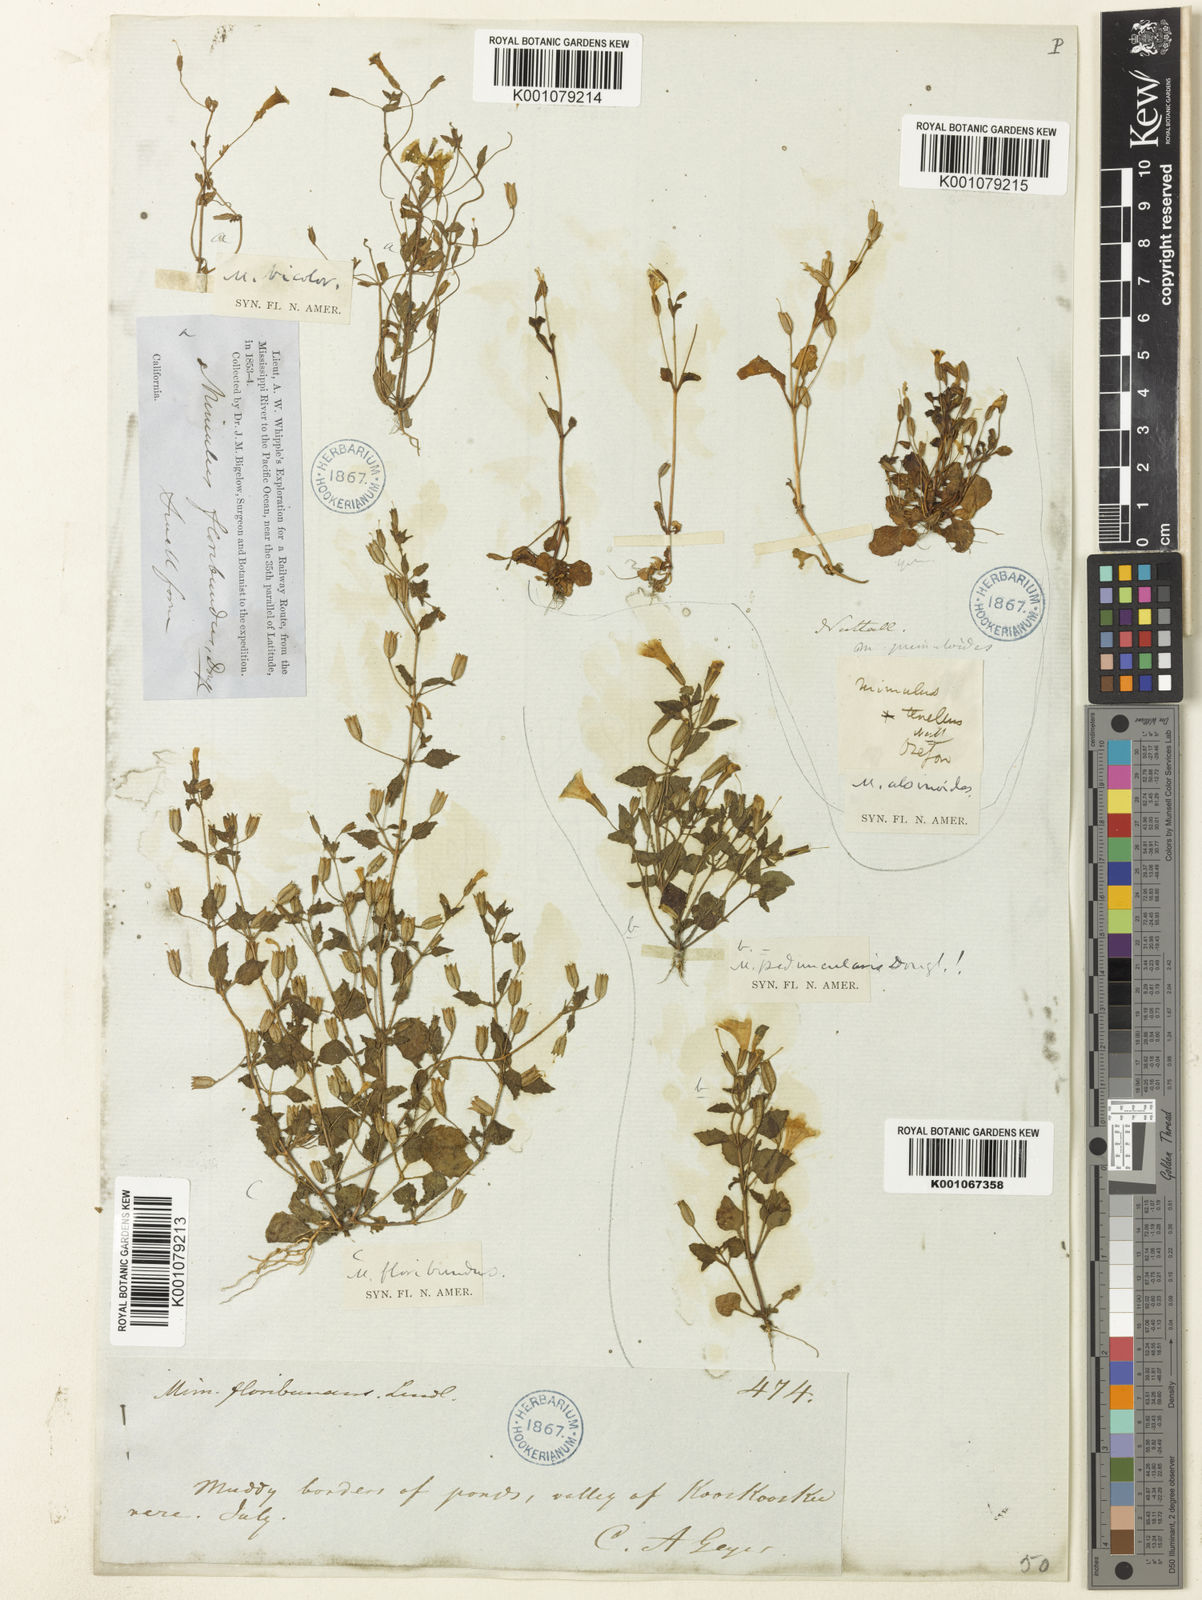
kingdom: Plantae
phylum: Tracheophyta
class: Magnoliopsida
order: Lamiales
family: Phrymaceae
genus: Erythranthe
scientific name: Erythranthe floribunda
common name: Floriferous monkeyflower
